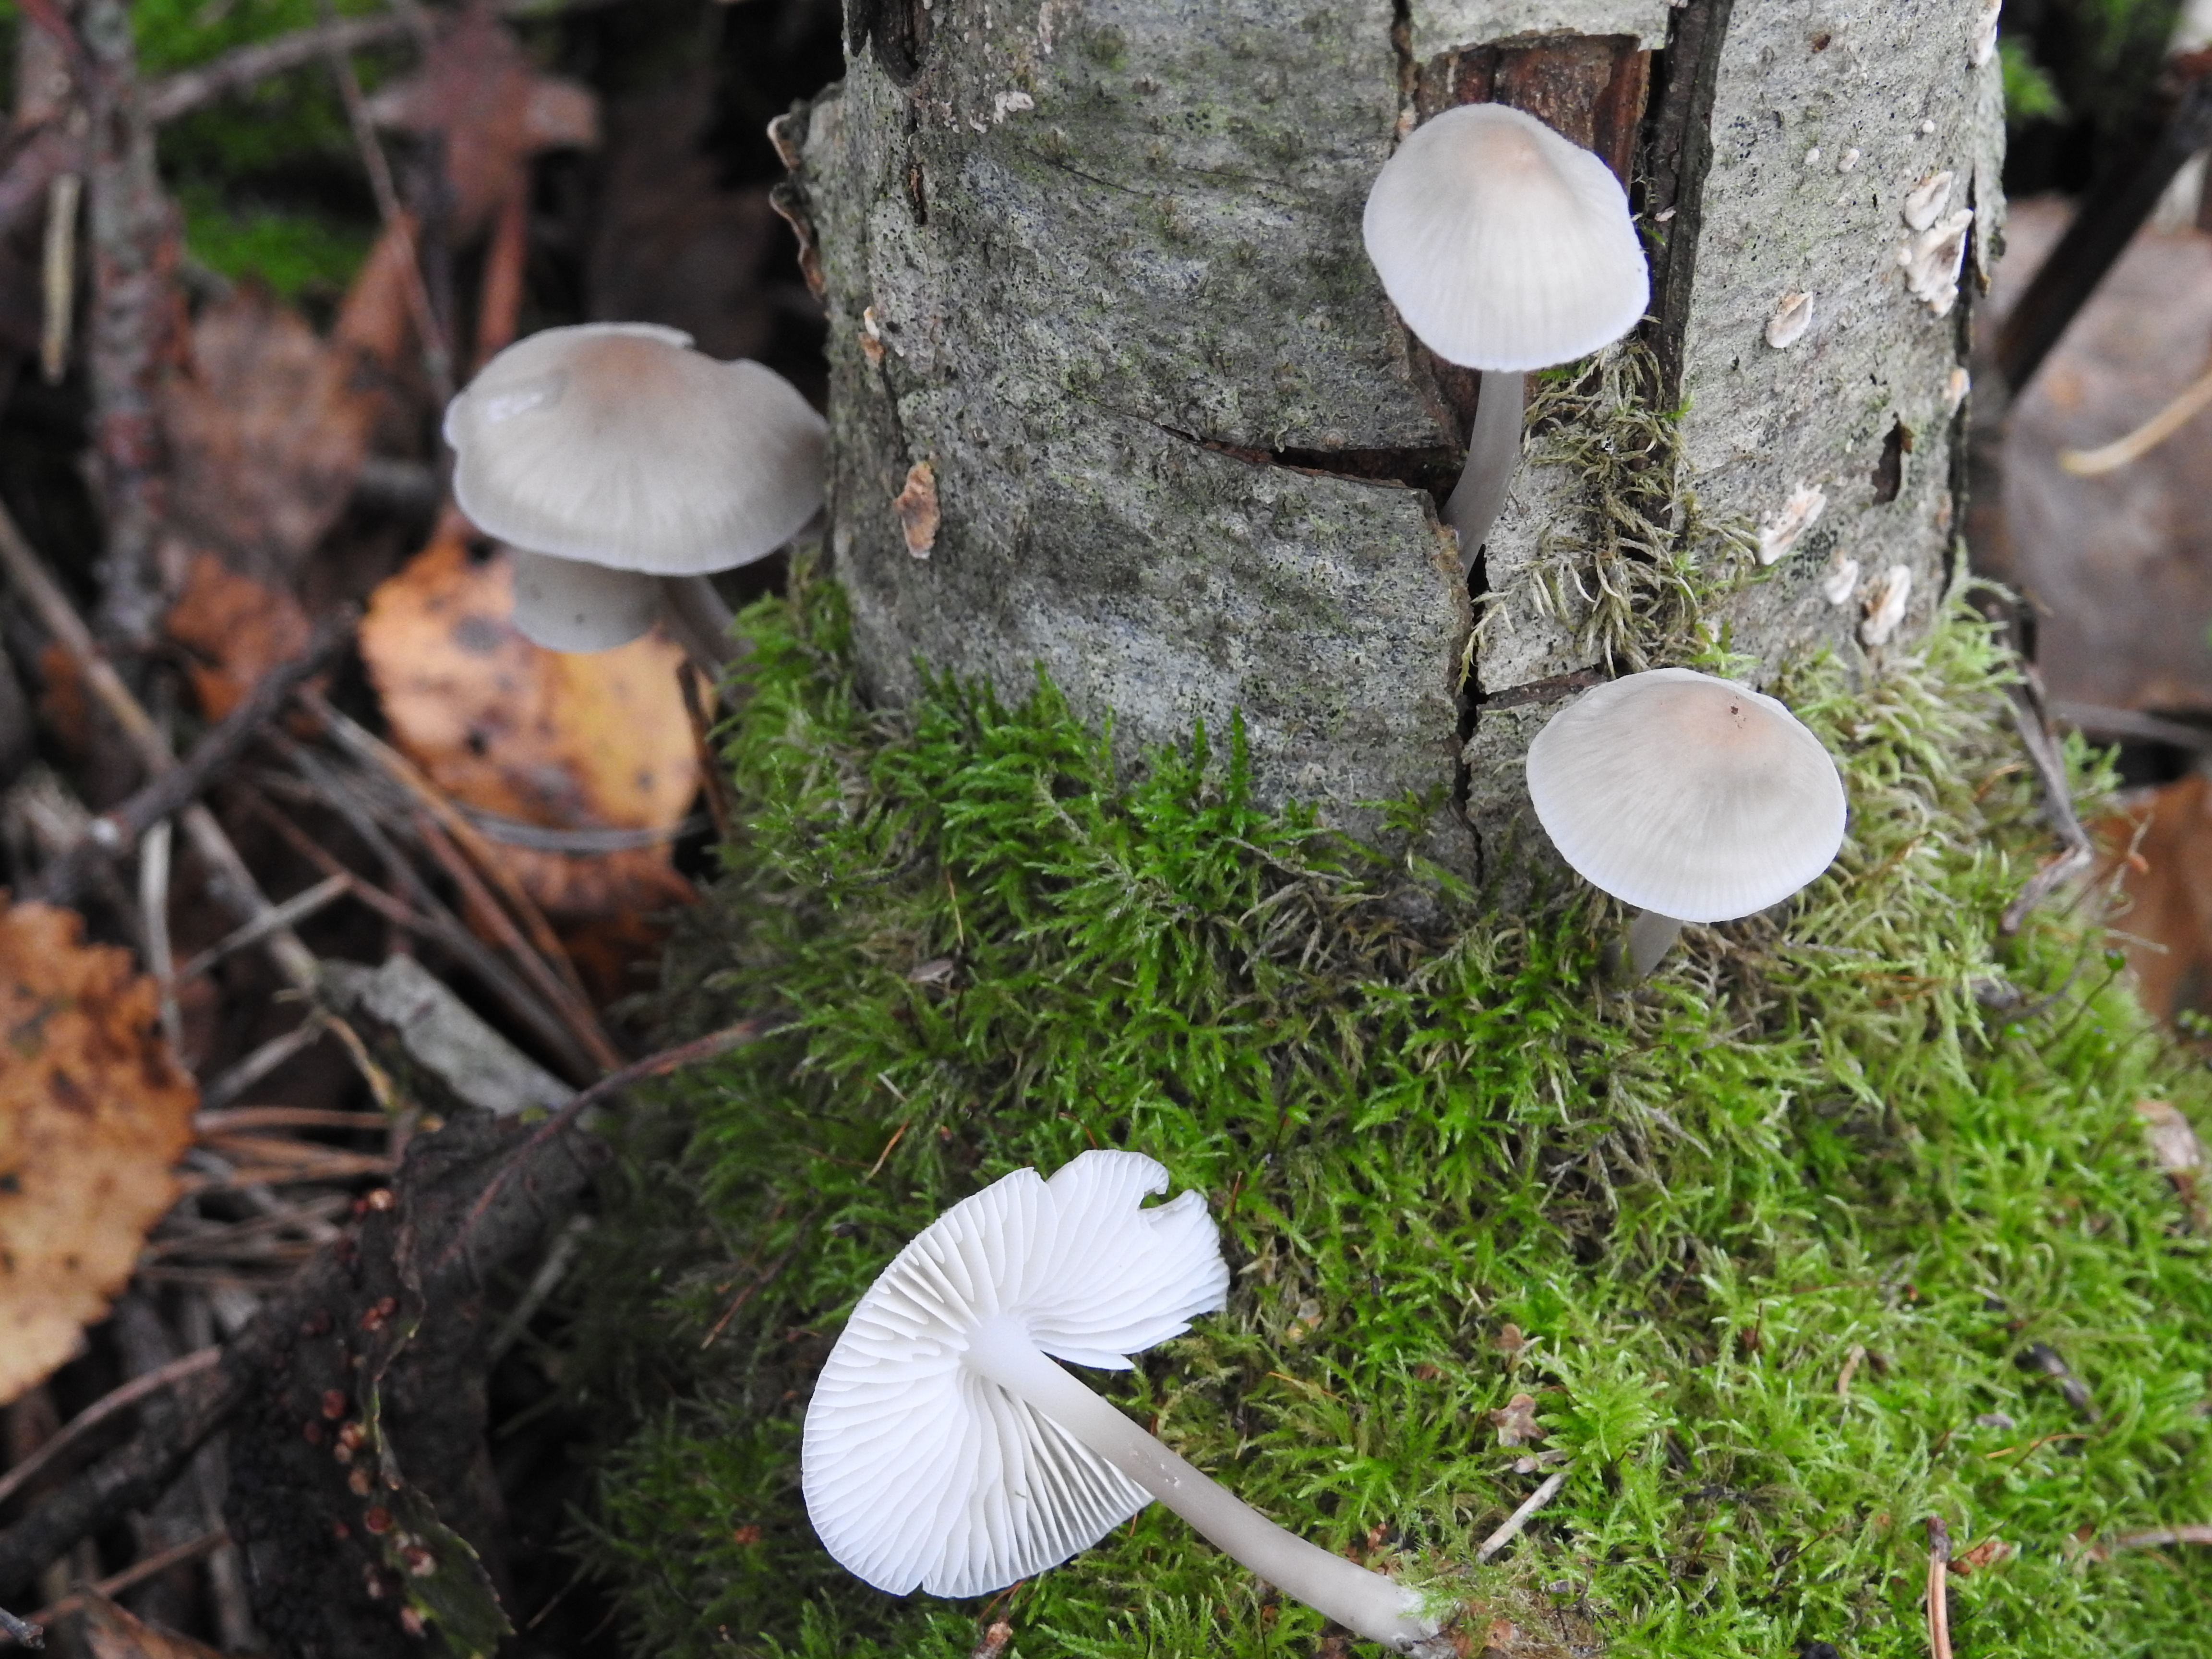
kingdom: Fungi
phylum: Basidiomycota
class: Agaricomycetes
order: Agaricales
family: Mycenaceae
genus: Mycena
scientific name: Mycena galericulata
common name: Bonnet mycena
